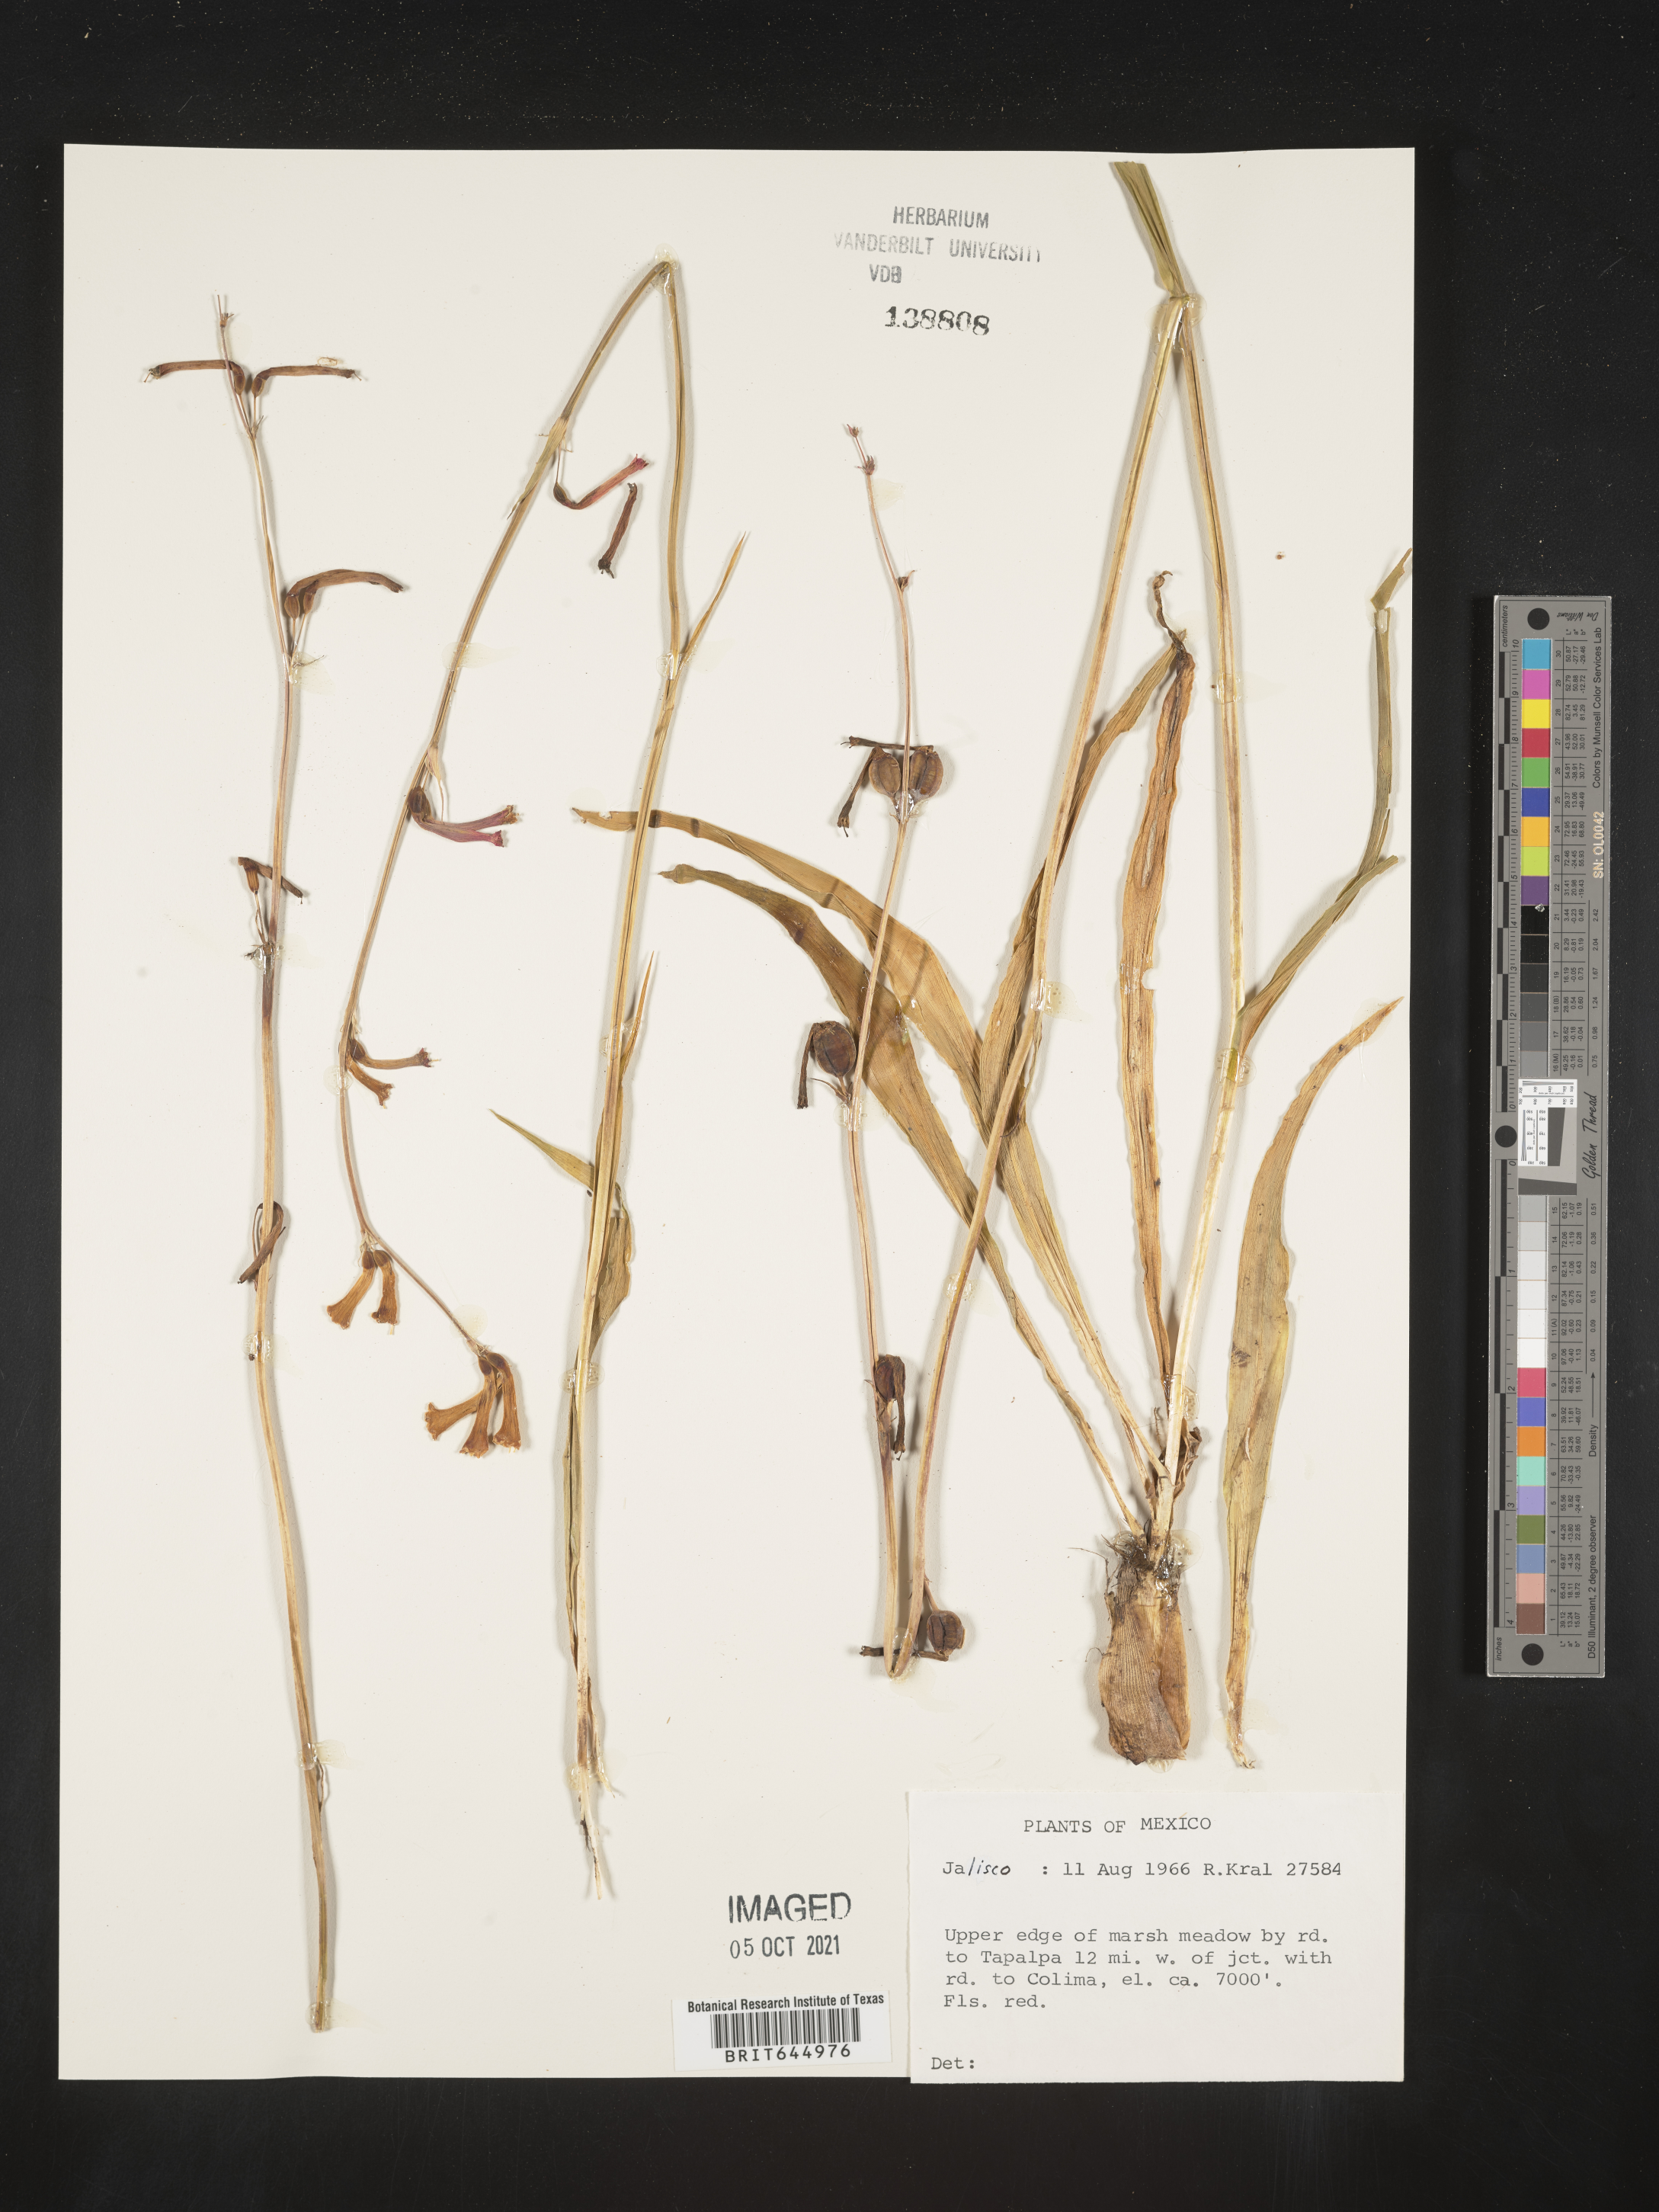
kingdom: Plantae
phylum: Tracheophyta
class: Liliopsida
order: Asparagales
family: Asparagaceae
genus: Agave
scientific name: Agave
